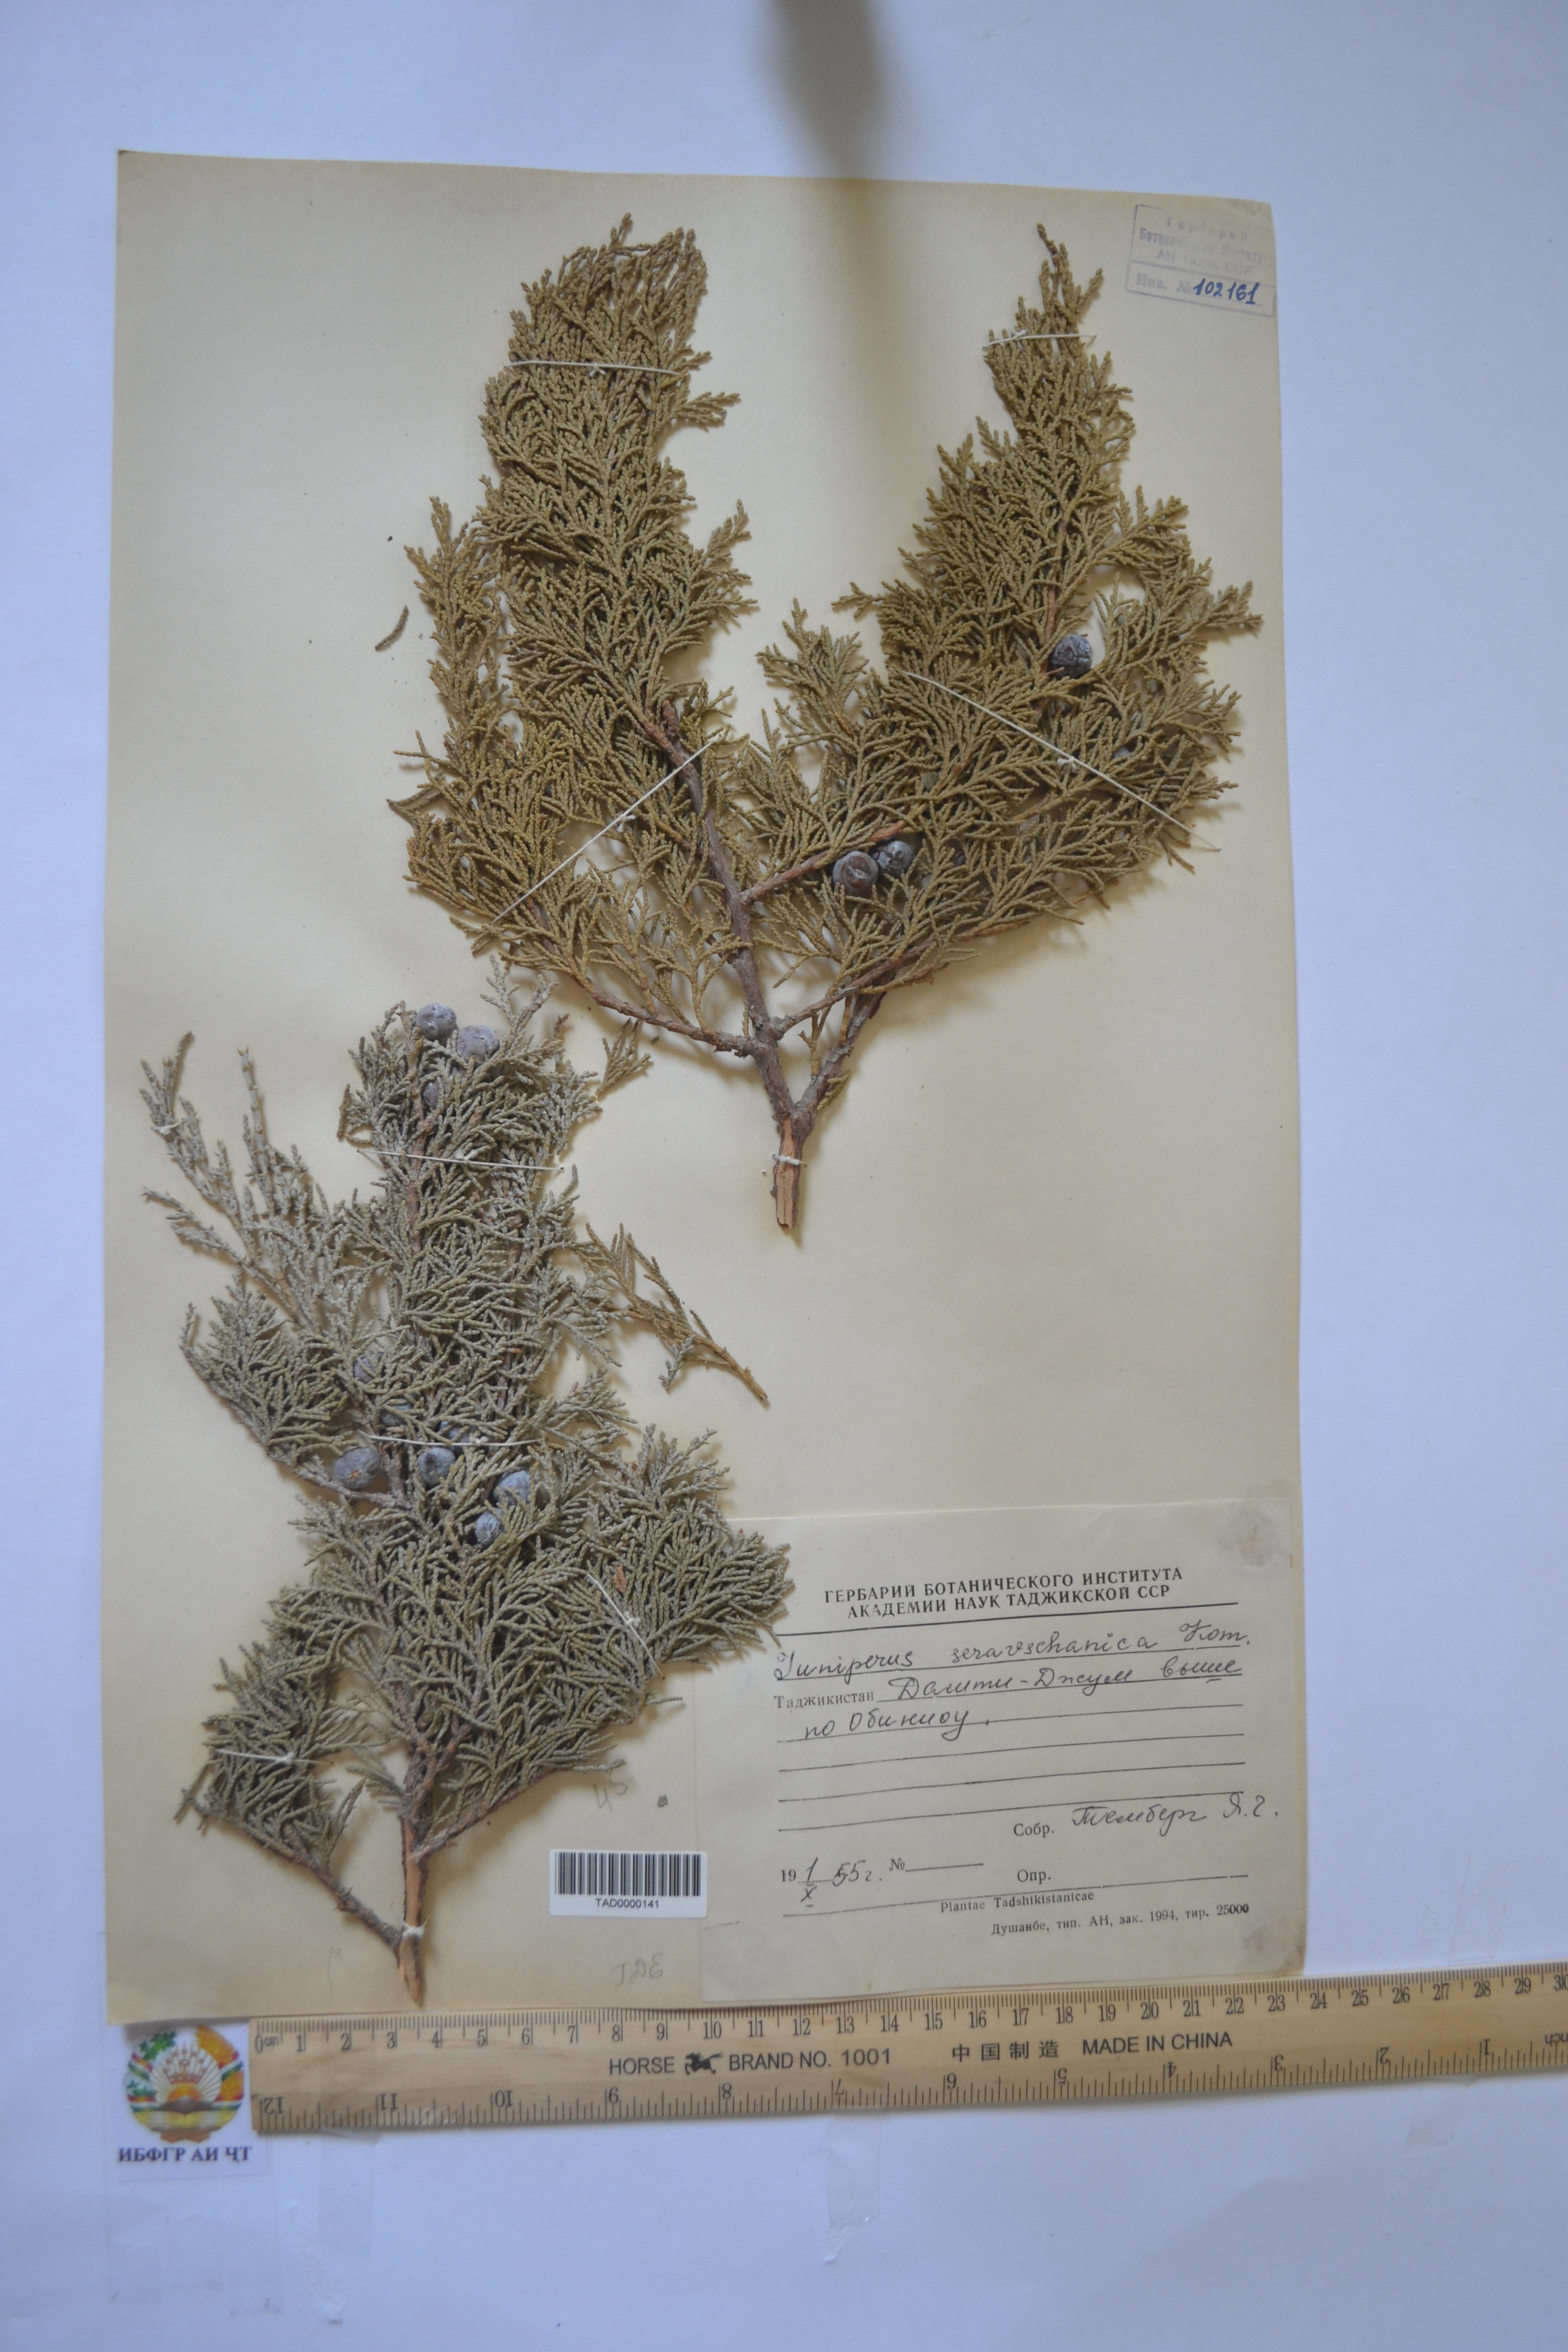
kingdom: Plantae
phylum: Tracheophyta
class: Pinopsida
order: Pinales
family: Cupressaceae
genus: Juniperus
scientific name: Juniperus excelsa
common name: Crimean juniper
